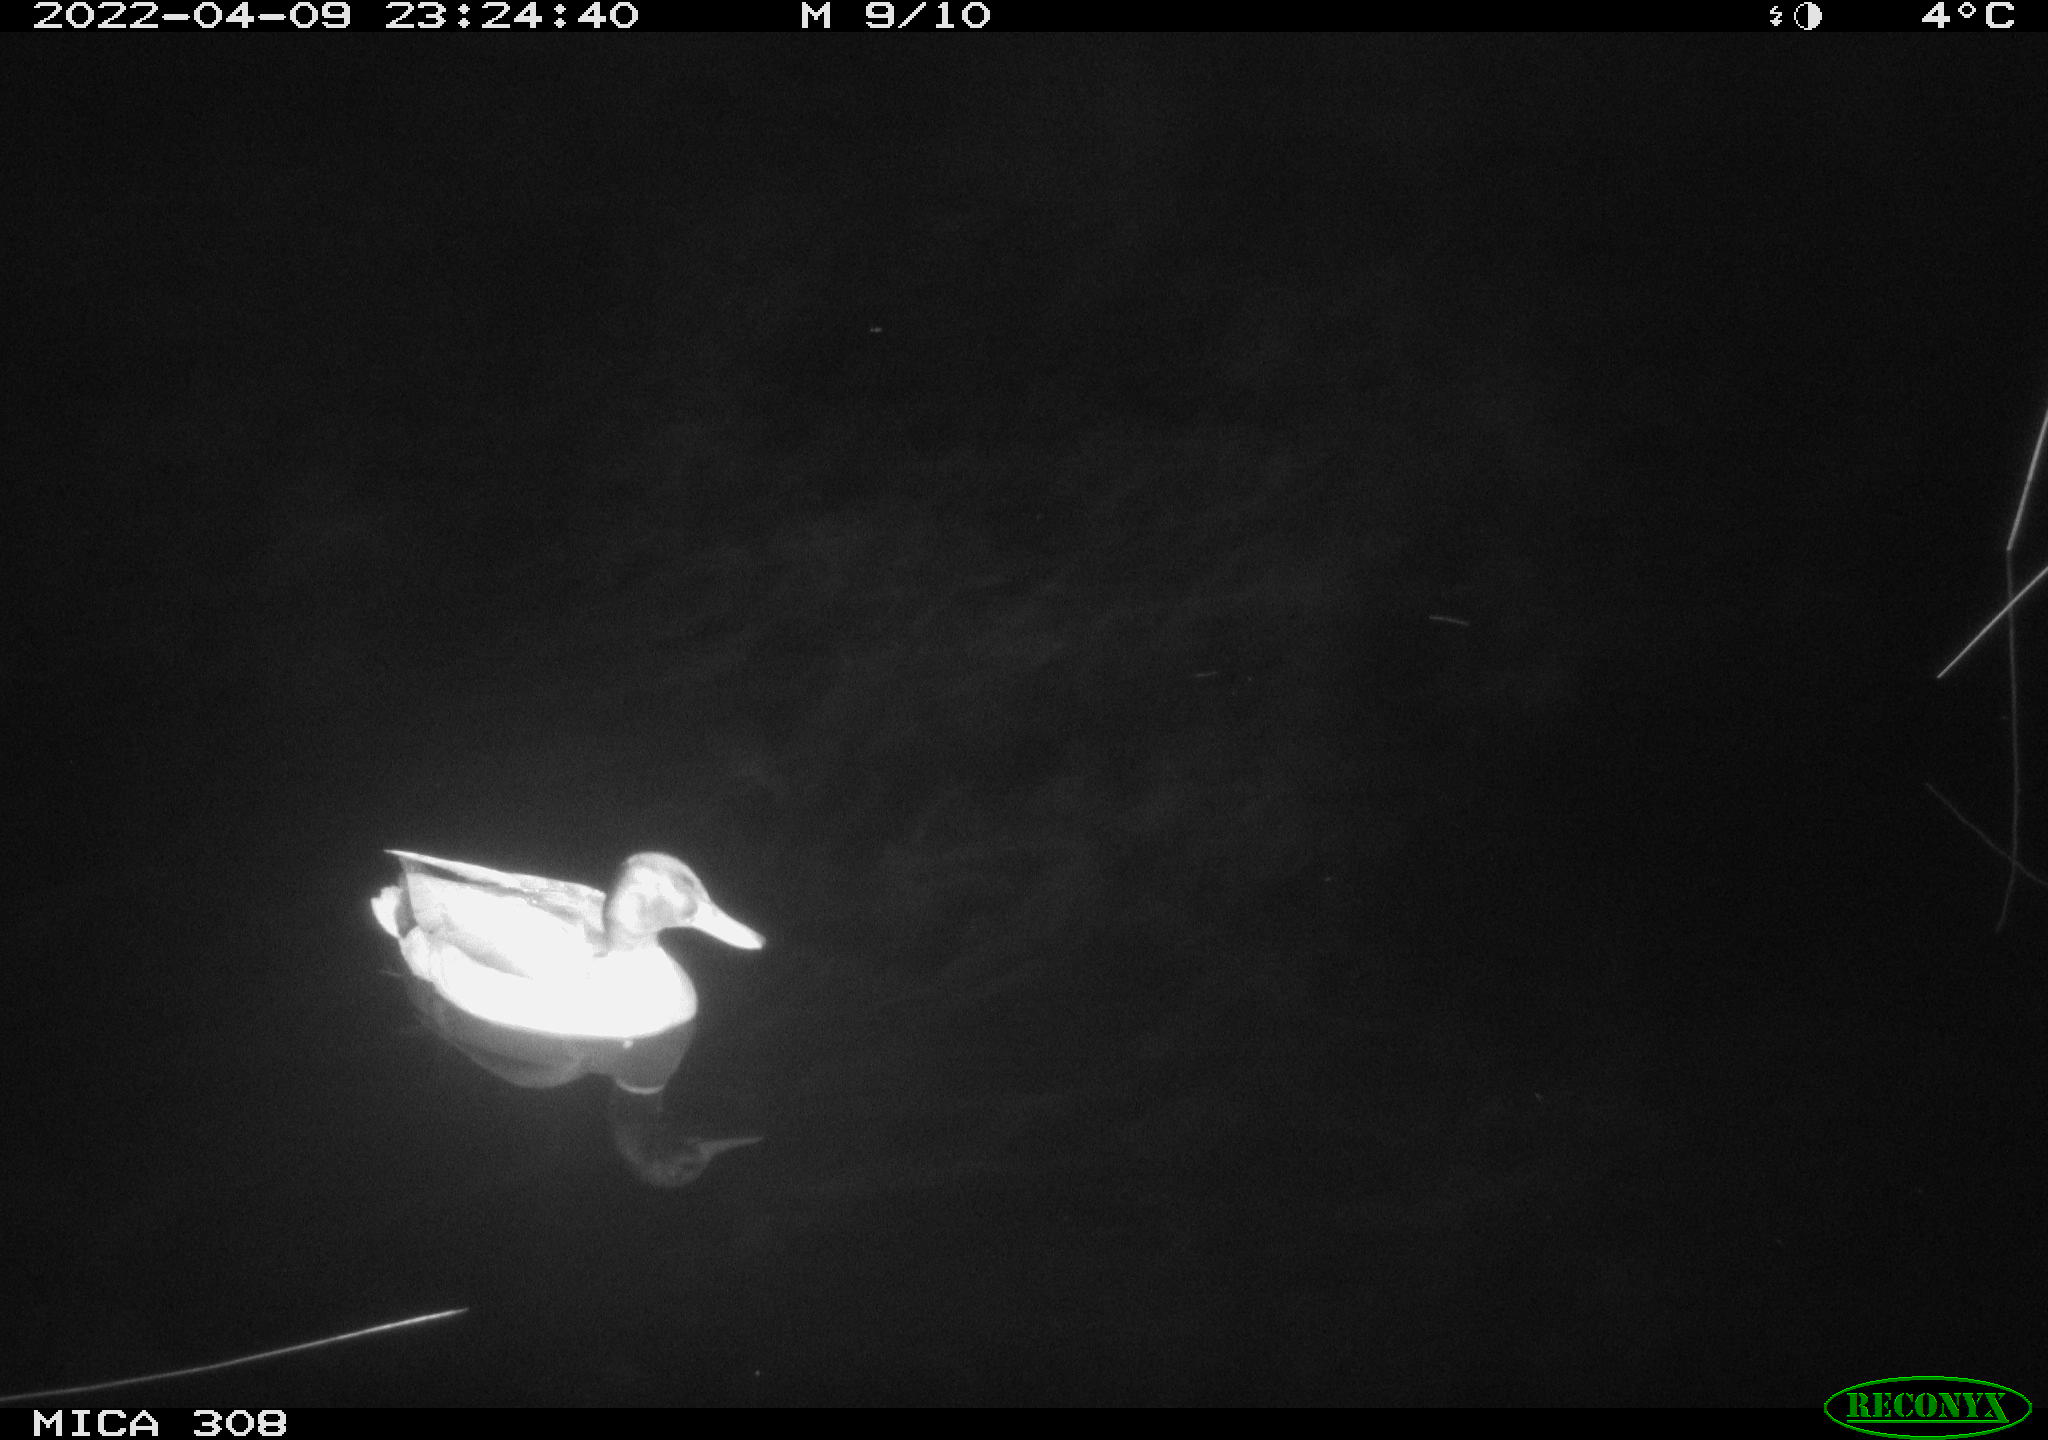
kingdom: Animalia
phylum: Chordata
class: Aves
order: Anseriformes
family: Anatidae
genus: Anas
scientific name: Anas platyrhynchos
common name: Mallard
